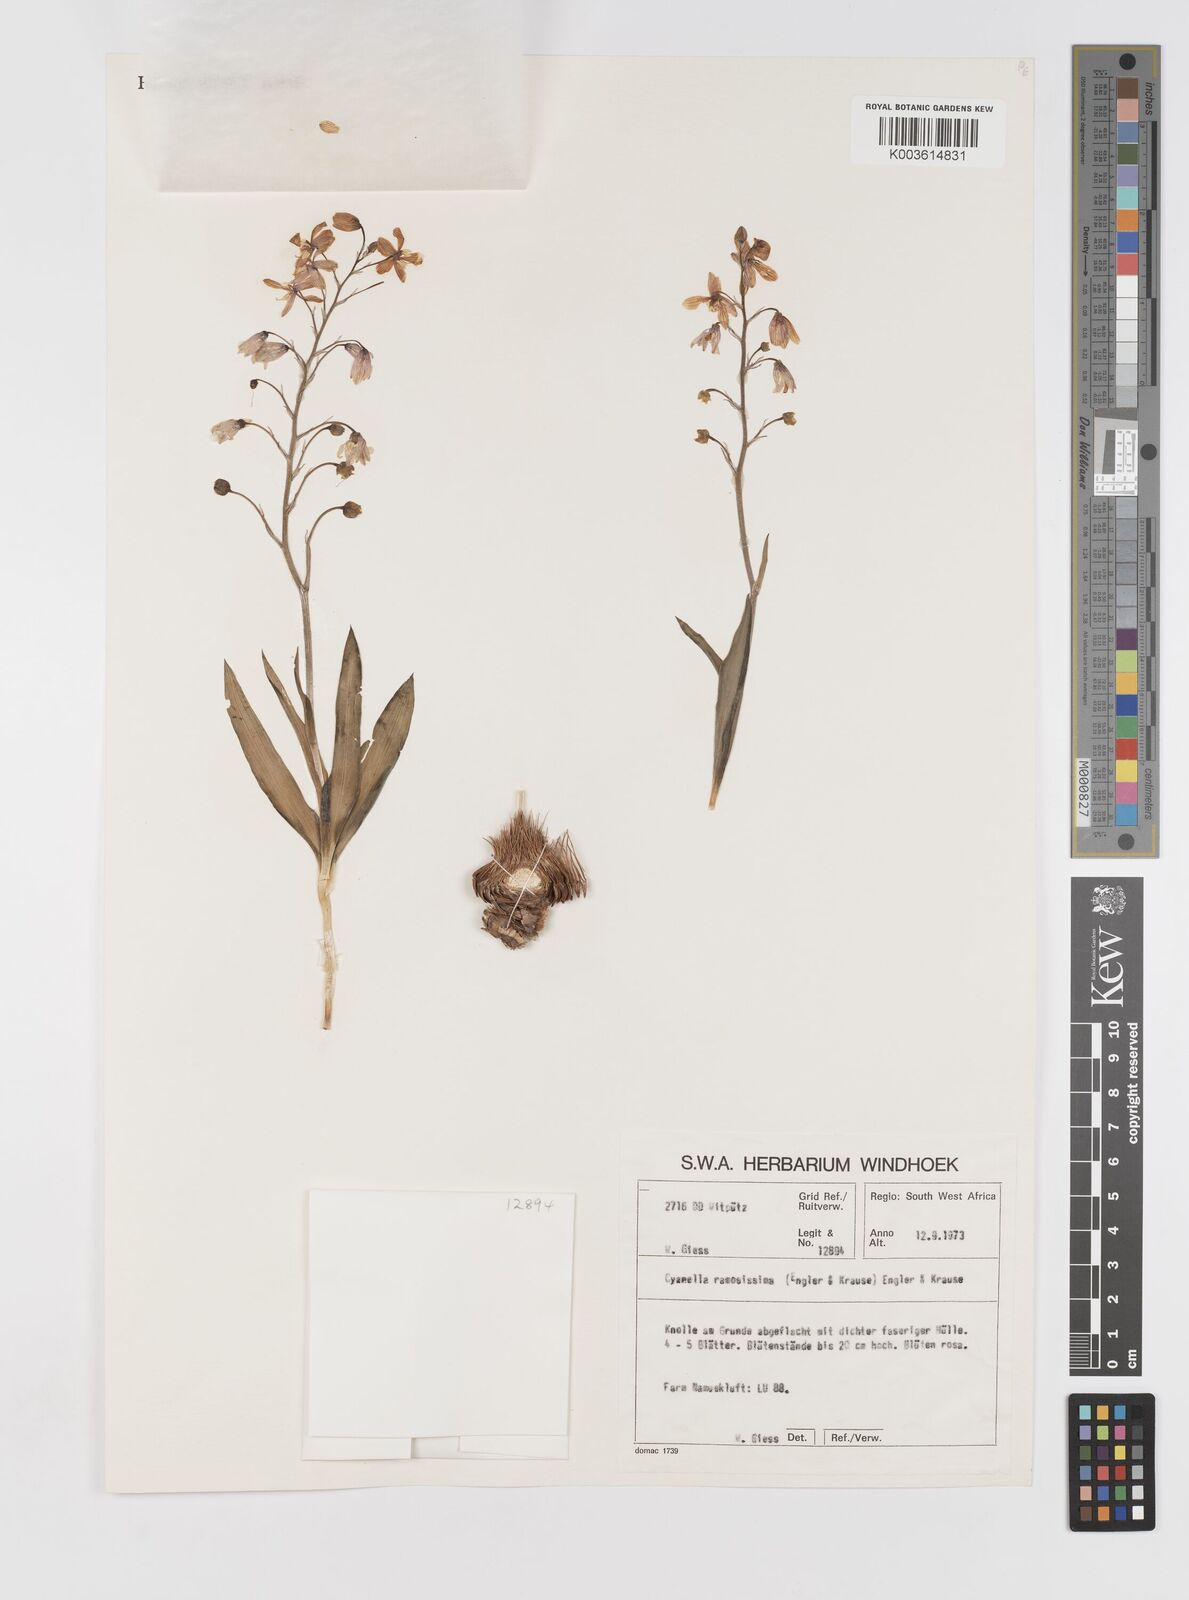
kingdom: Plantae
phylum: Tracheophyta
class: Liliopsida
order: Asparagales
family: Tecophilaeaceae
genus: Cyanella
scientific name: Cyanella ramosissima
